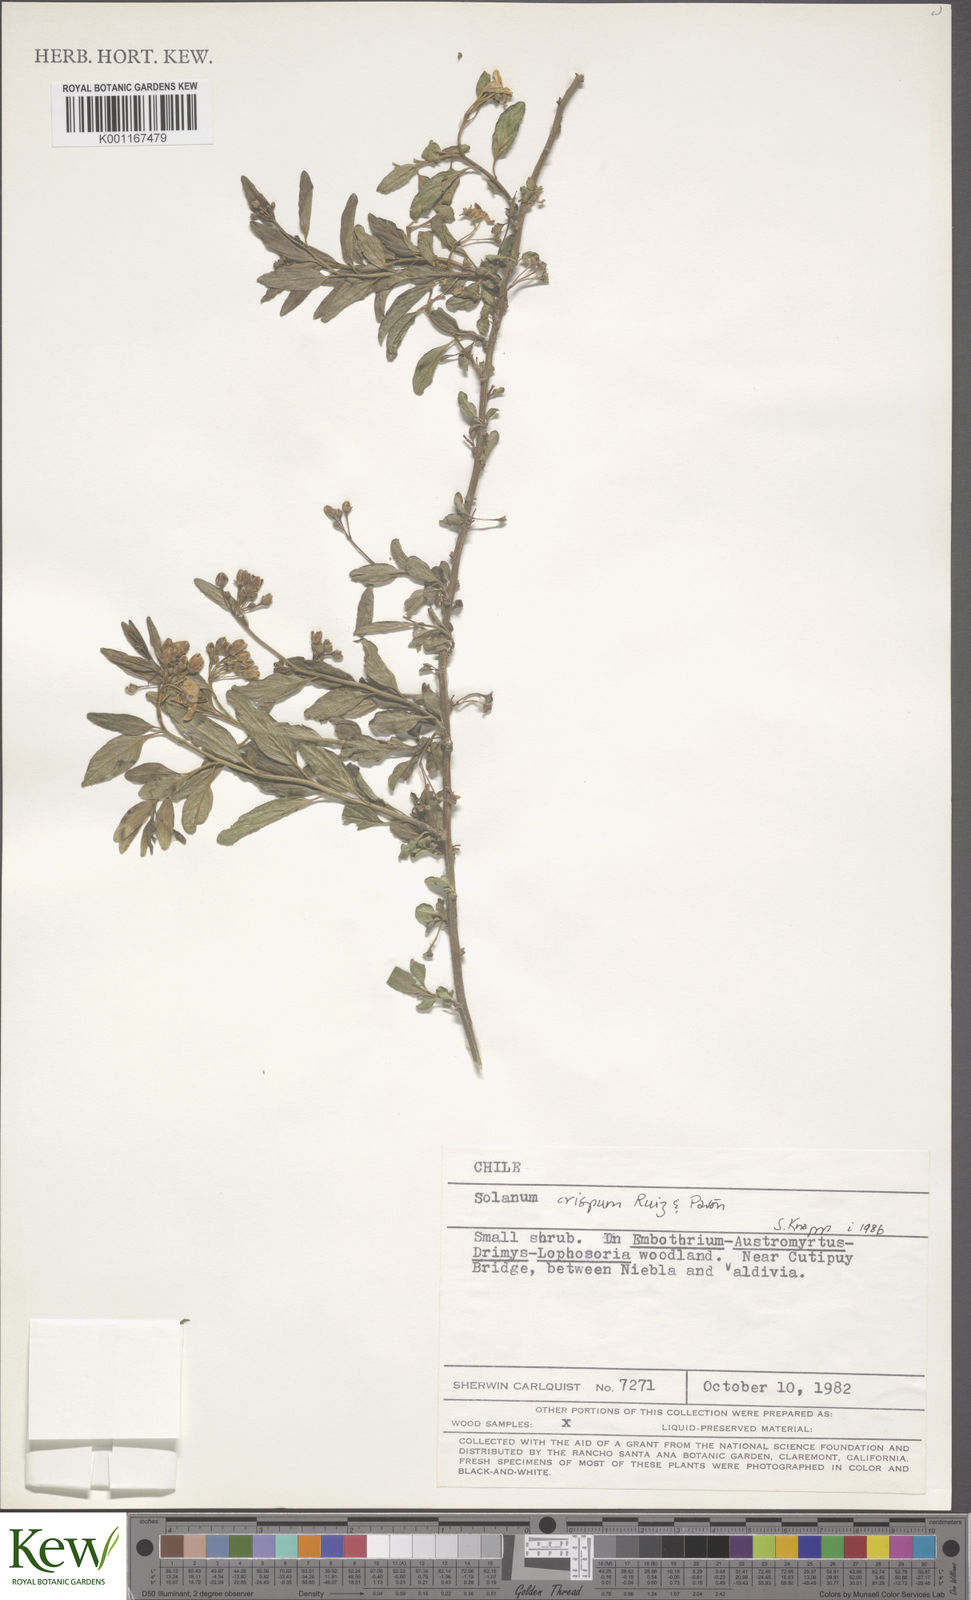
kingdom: Plantae
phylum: Tracheophyta
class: Magnoliopsida
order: Solanales
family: Solanaceae
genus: Solanum
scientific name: Solanum crispum
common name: Chilean nightshade
